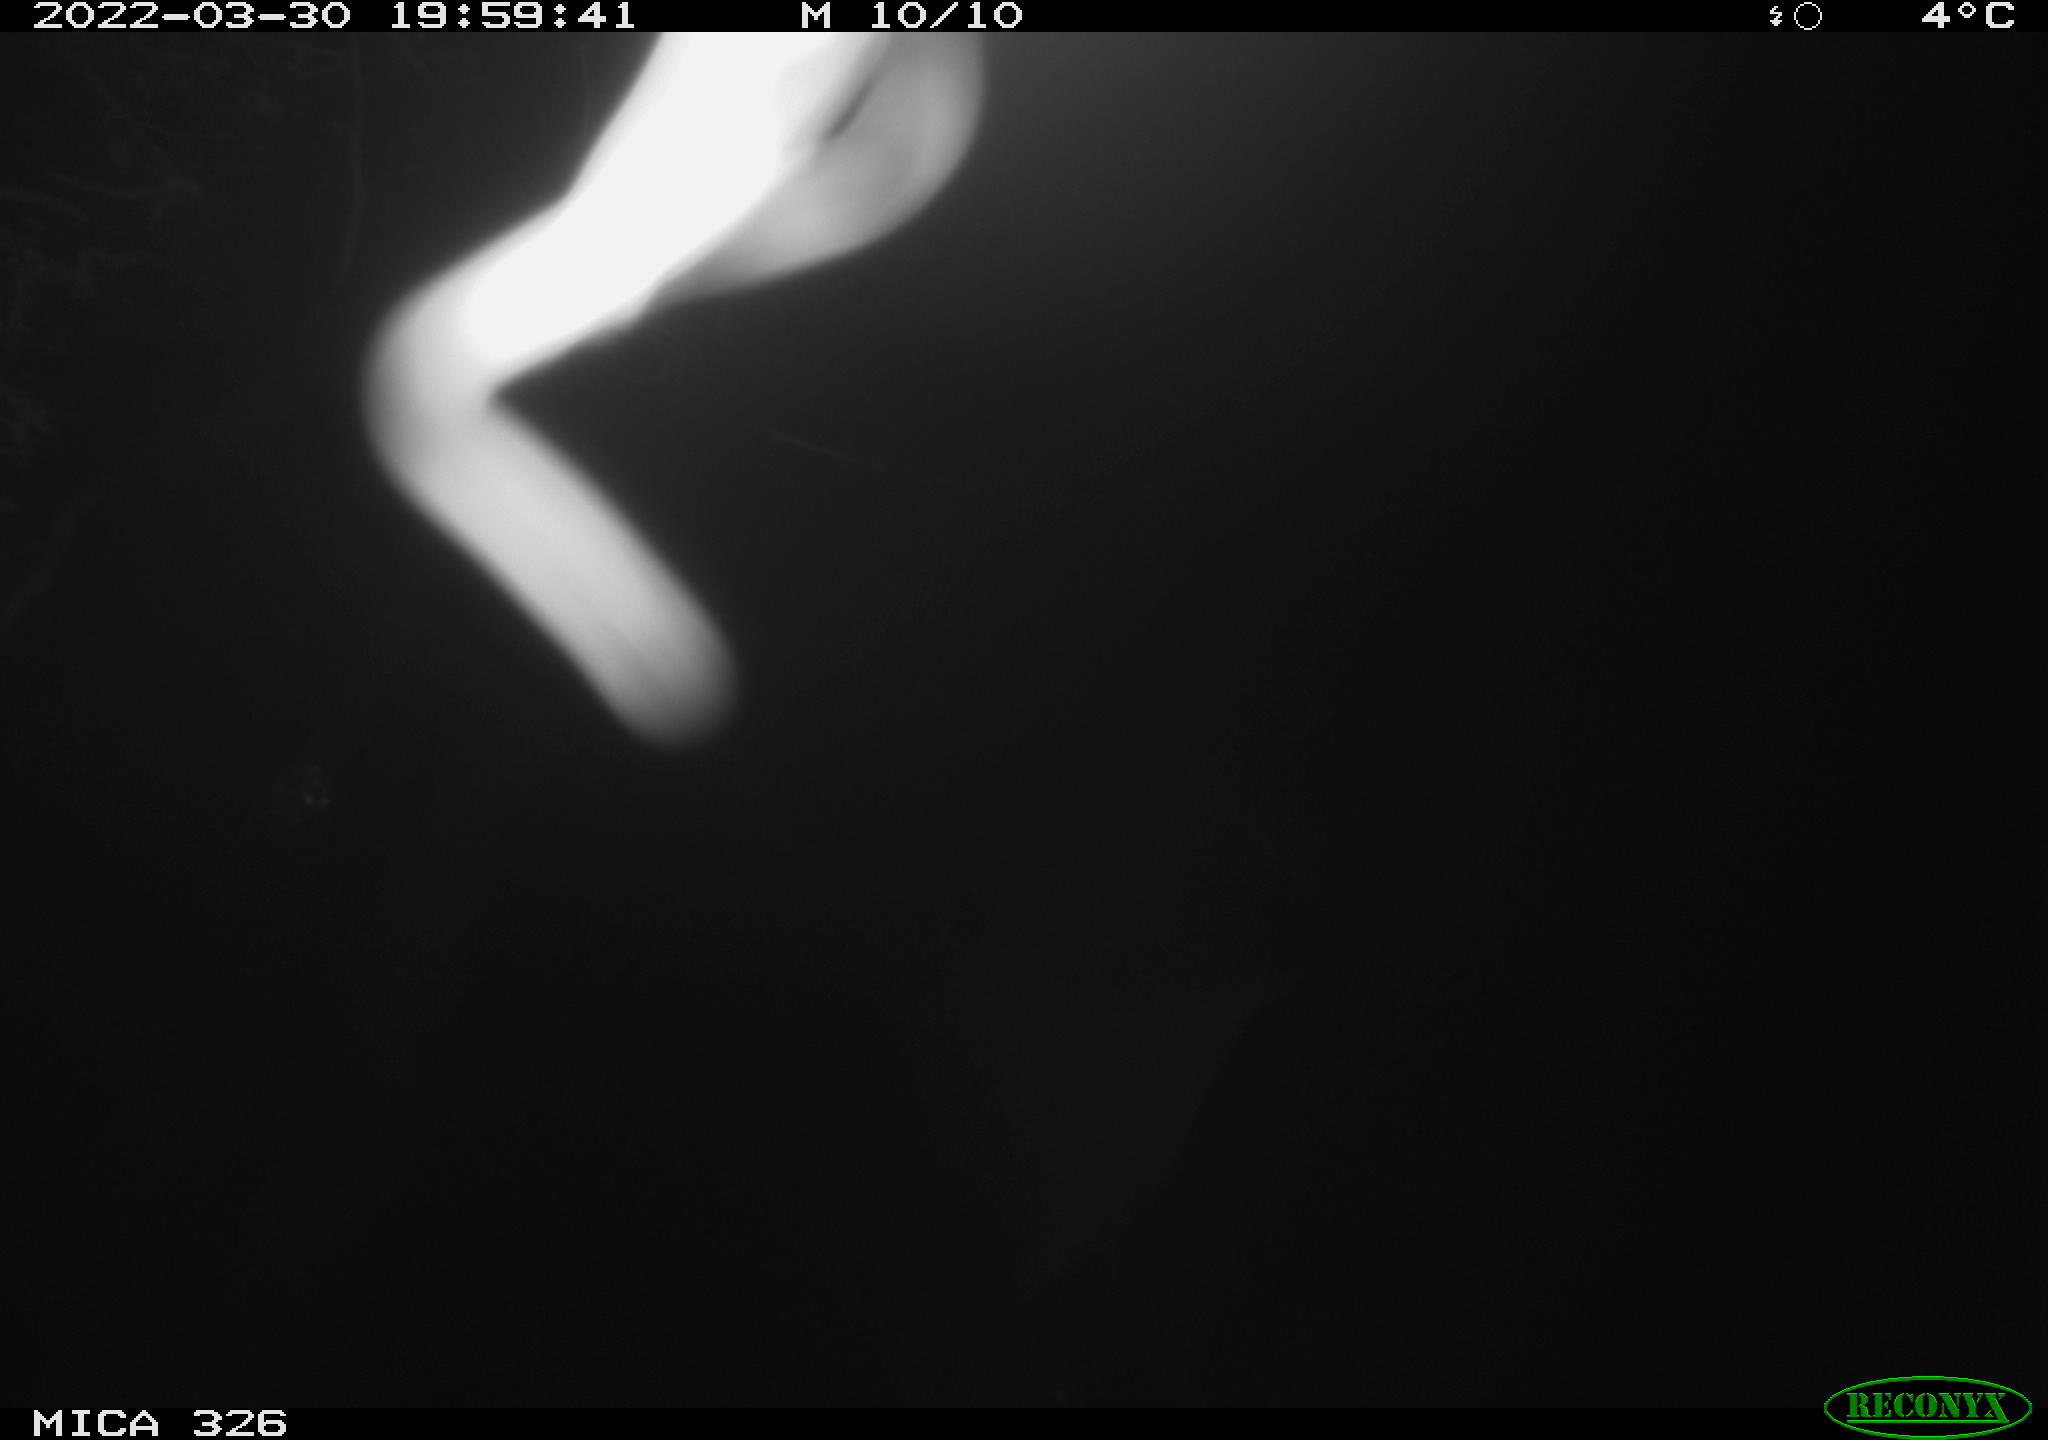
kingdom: Animalia
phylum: Chordata
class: Mammalia
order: Rodentia
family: Cricetidae
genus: Ondatra
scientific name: Ondatra zibethicus
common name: Muskrat
